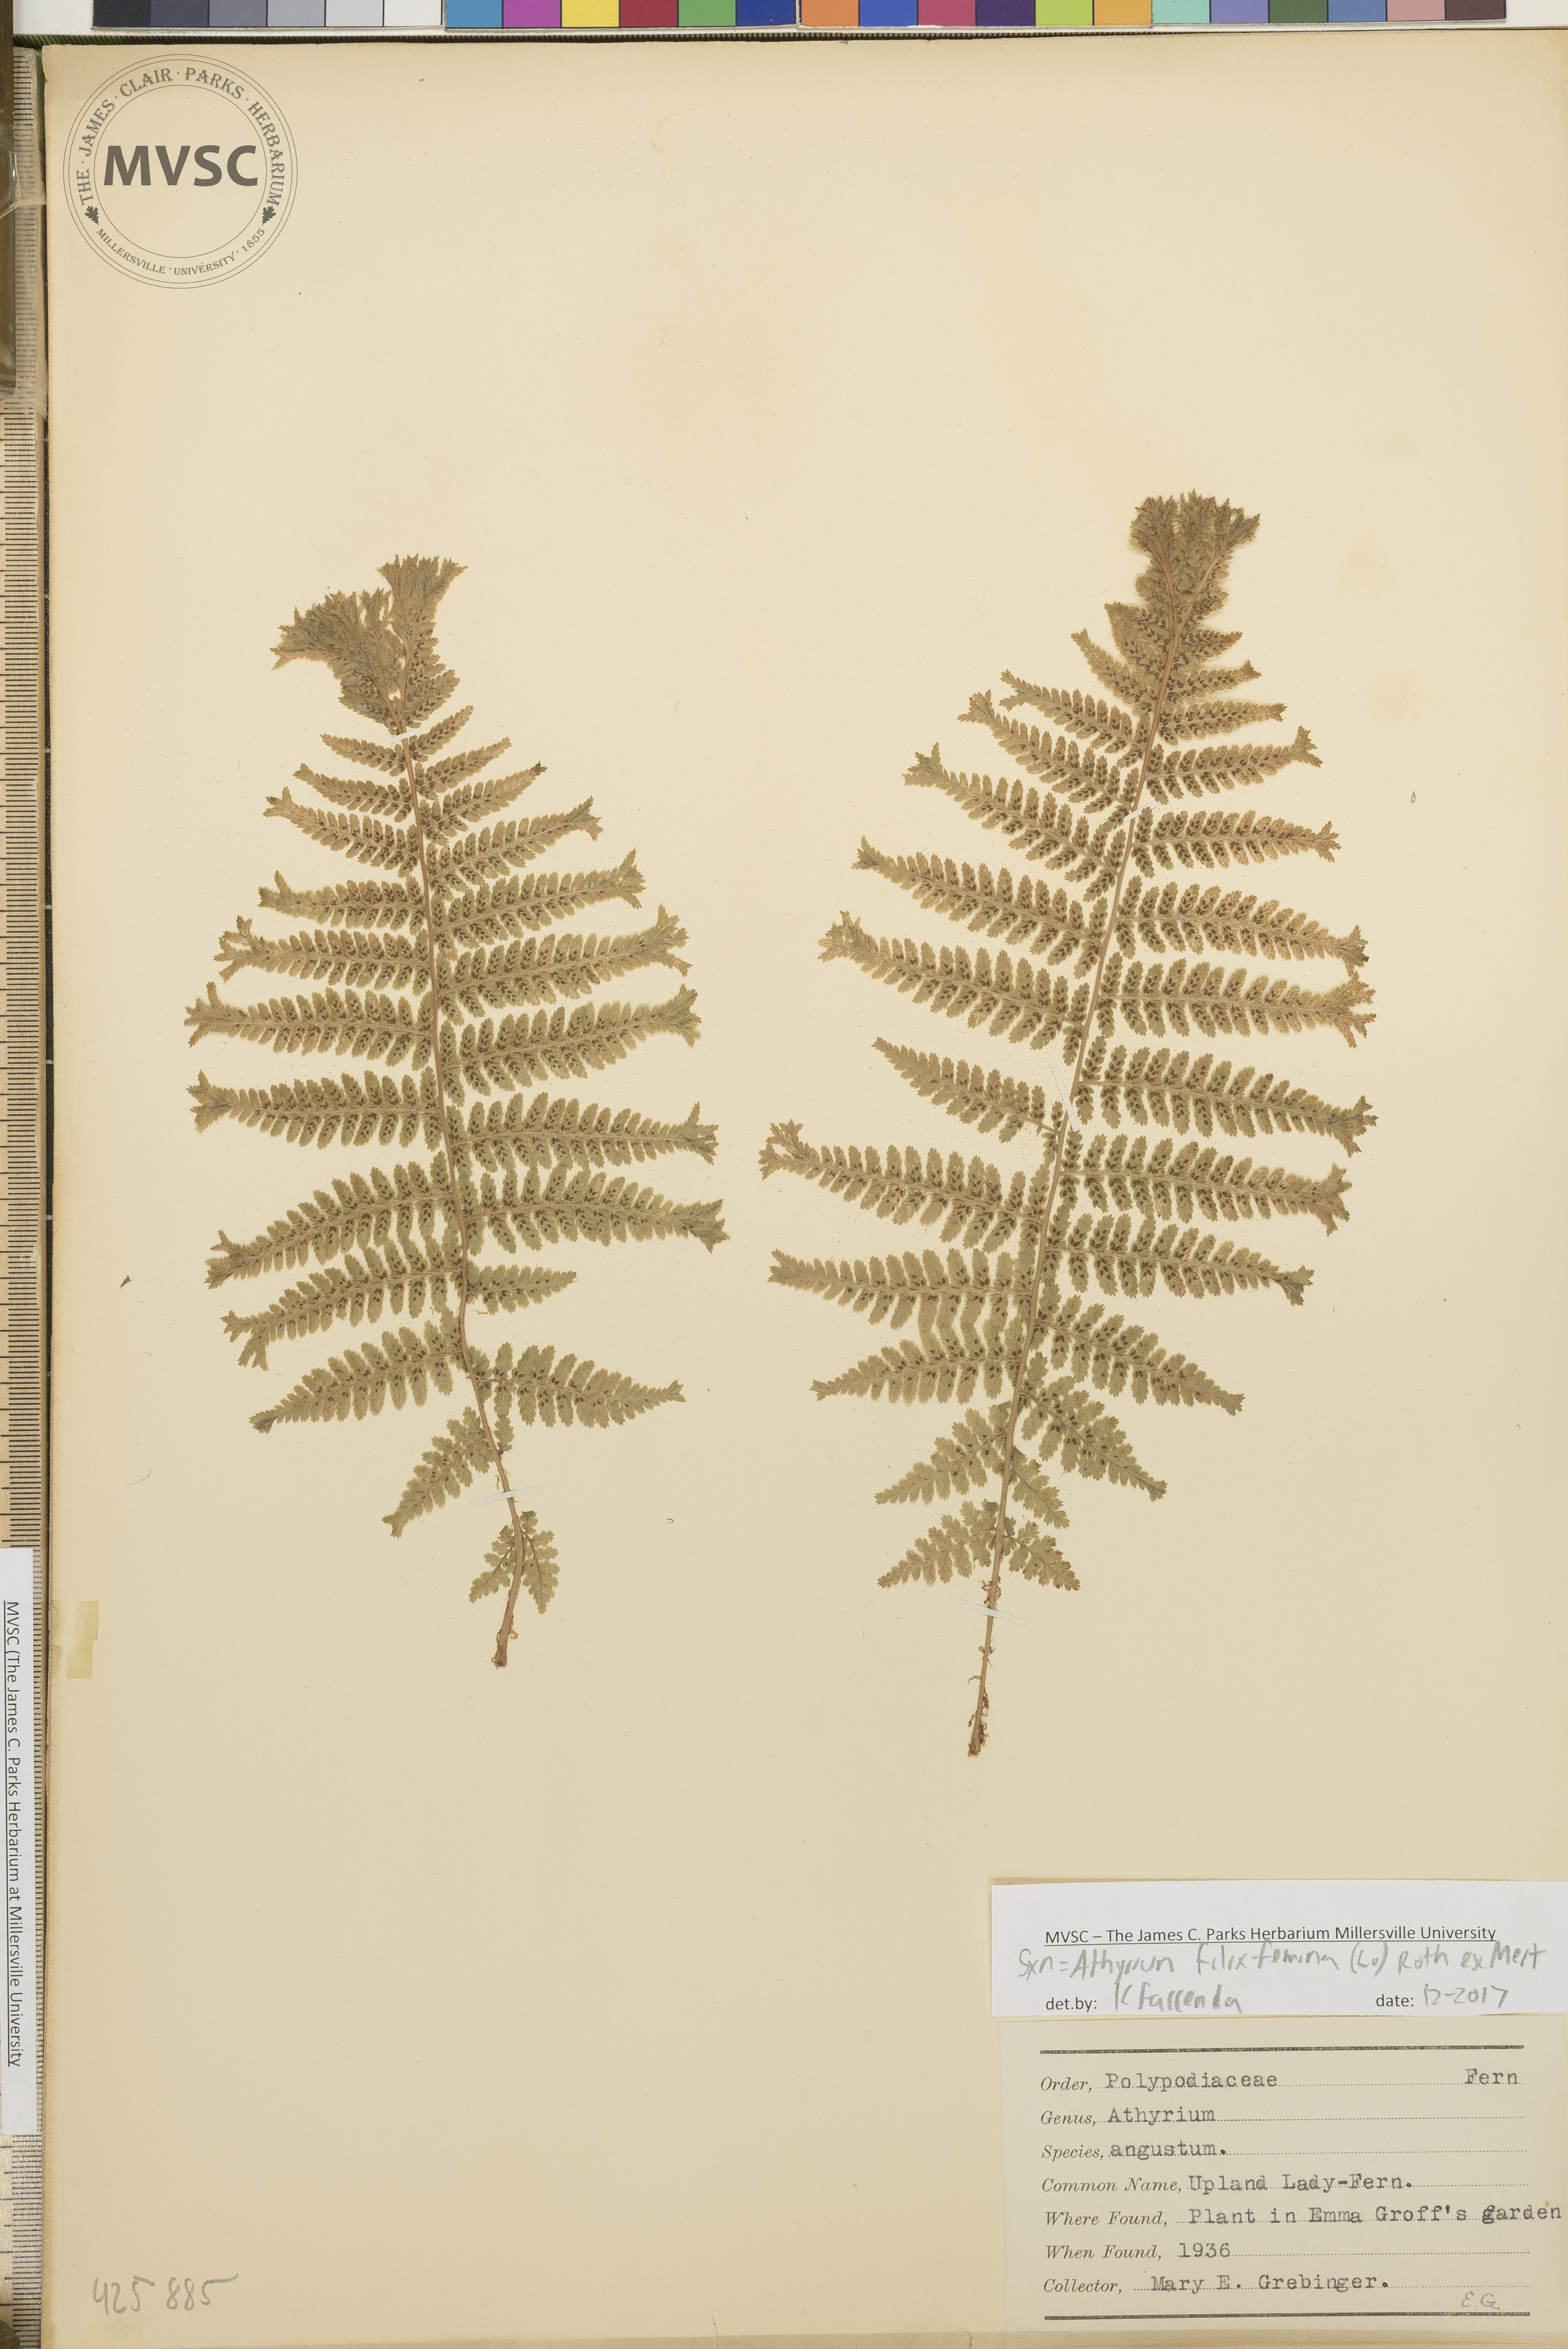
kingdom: Plantae
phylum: Tracheophyta
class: Polypodiopsida
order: Polypodiales
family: Athyriaceae
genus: Athyrium
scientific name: Athyrium filix-femina
